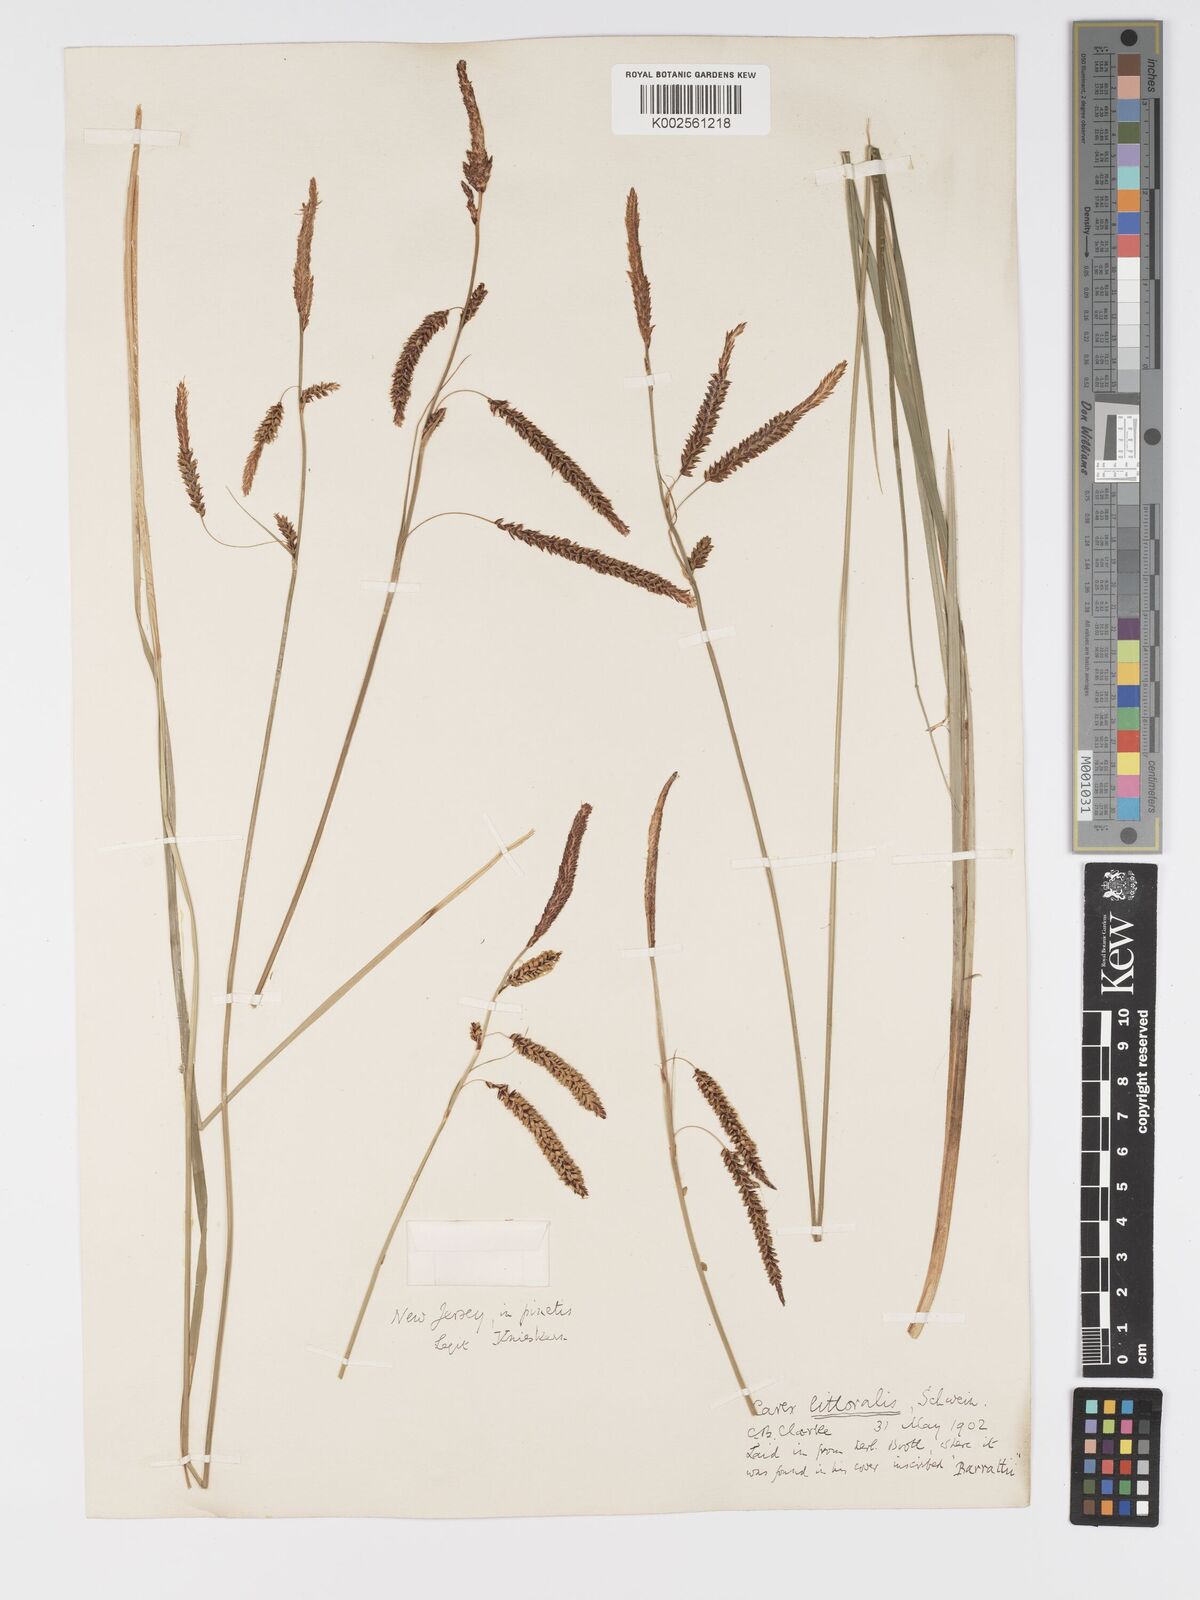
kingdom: Plantae
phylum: Tracheophyta
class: Liliopsida
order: Poales
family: Cyperaceae
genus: Carex
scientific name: Carex barrattii
